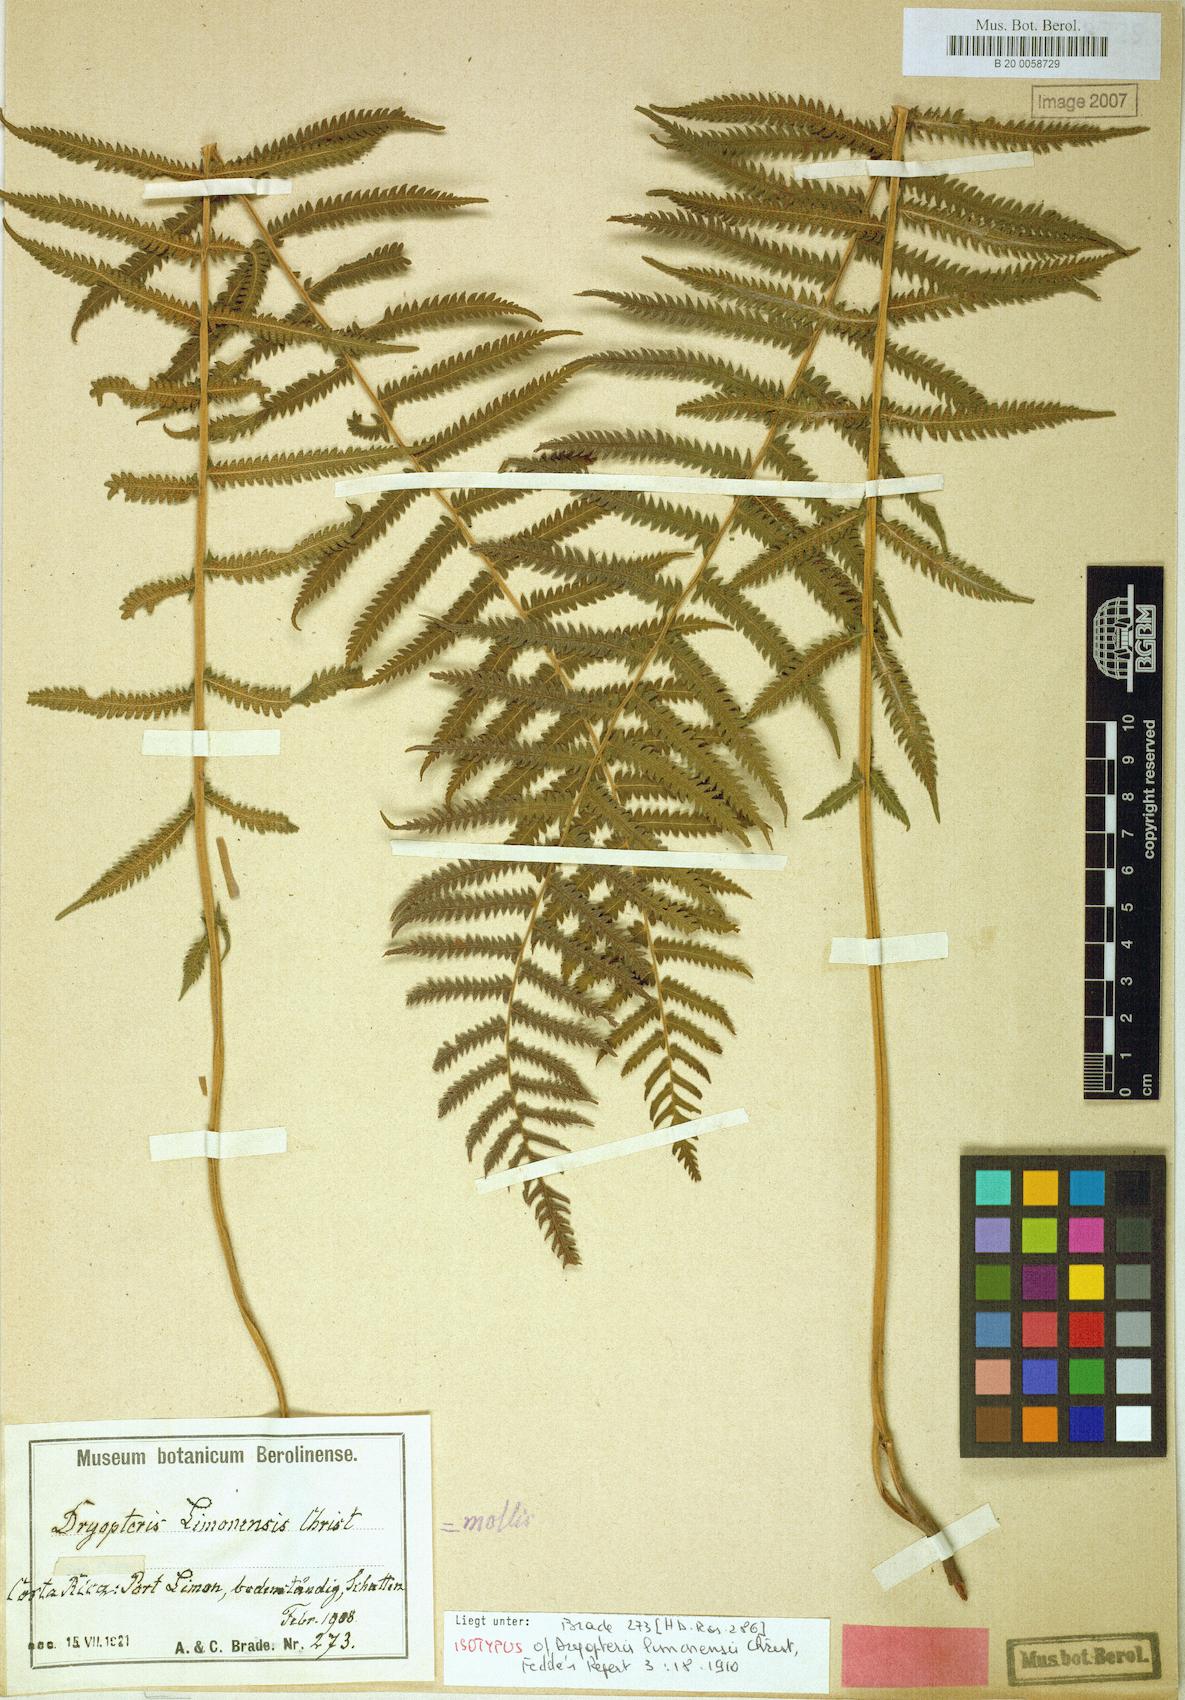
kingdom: Plantae
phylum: Tracheophyta
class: Polypodiopsida
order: Polypodiales
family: Thelypteridaceae
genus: Christella
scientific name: Christella hispidula
